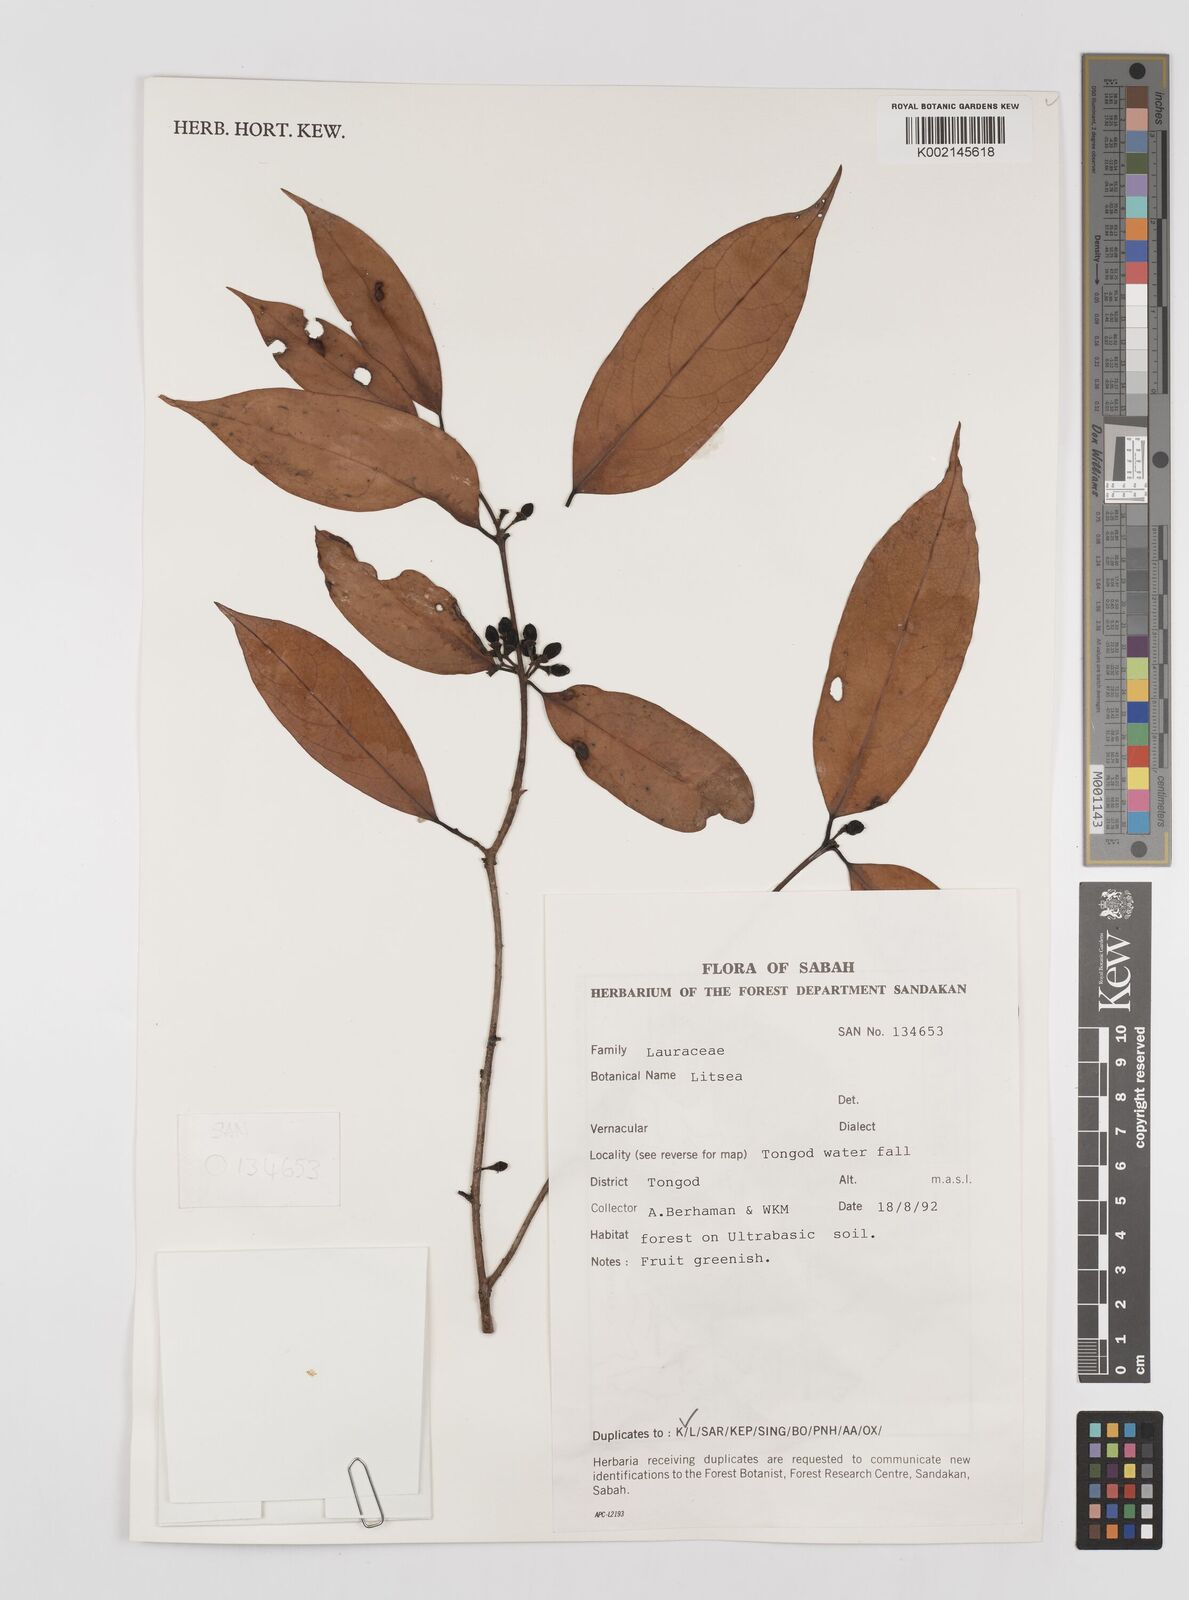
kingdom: Plantae
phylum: Tracheophyta
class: Magnoliopsida
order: Laurales
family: Lauraceae
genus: Litsea
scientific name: Litsea
